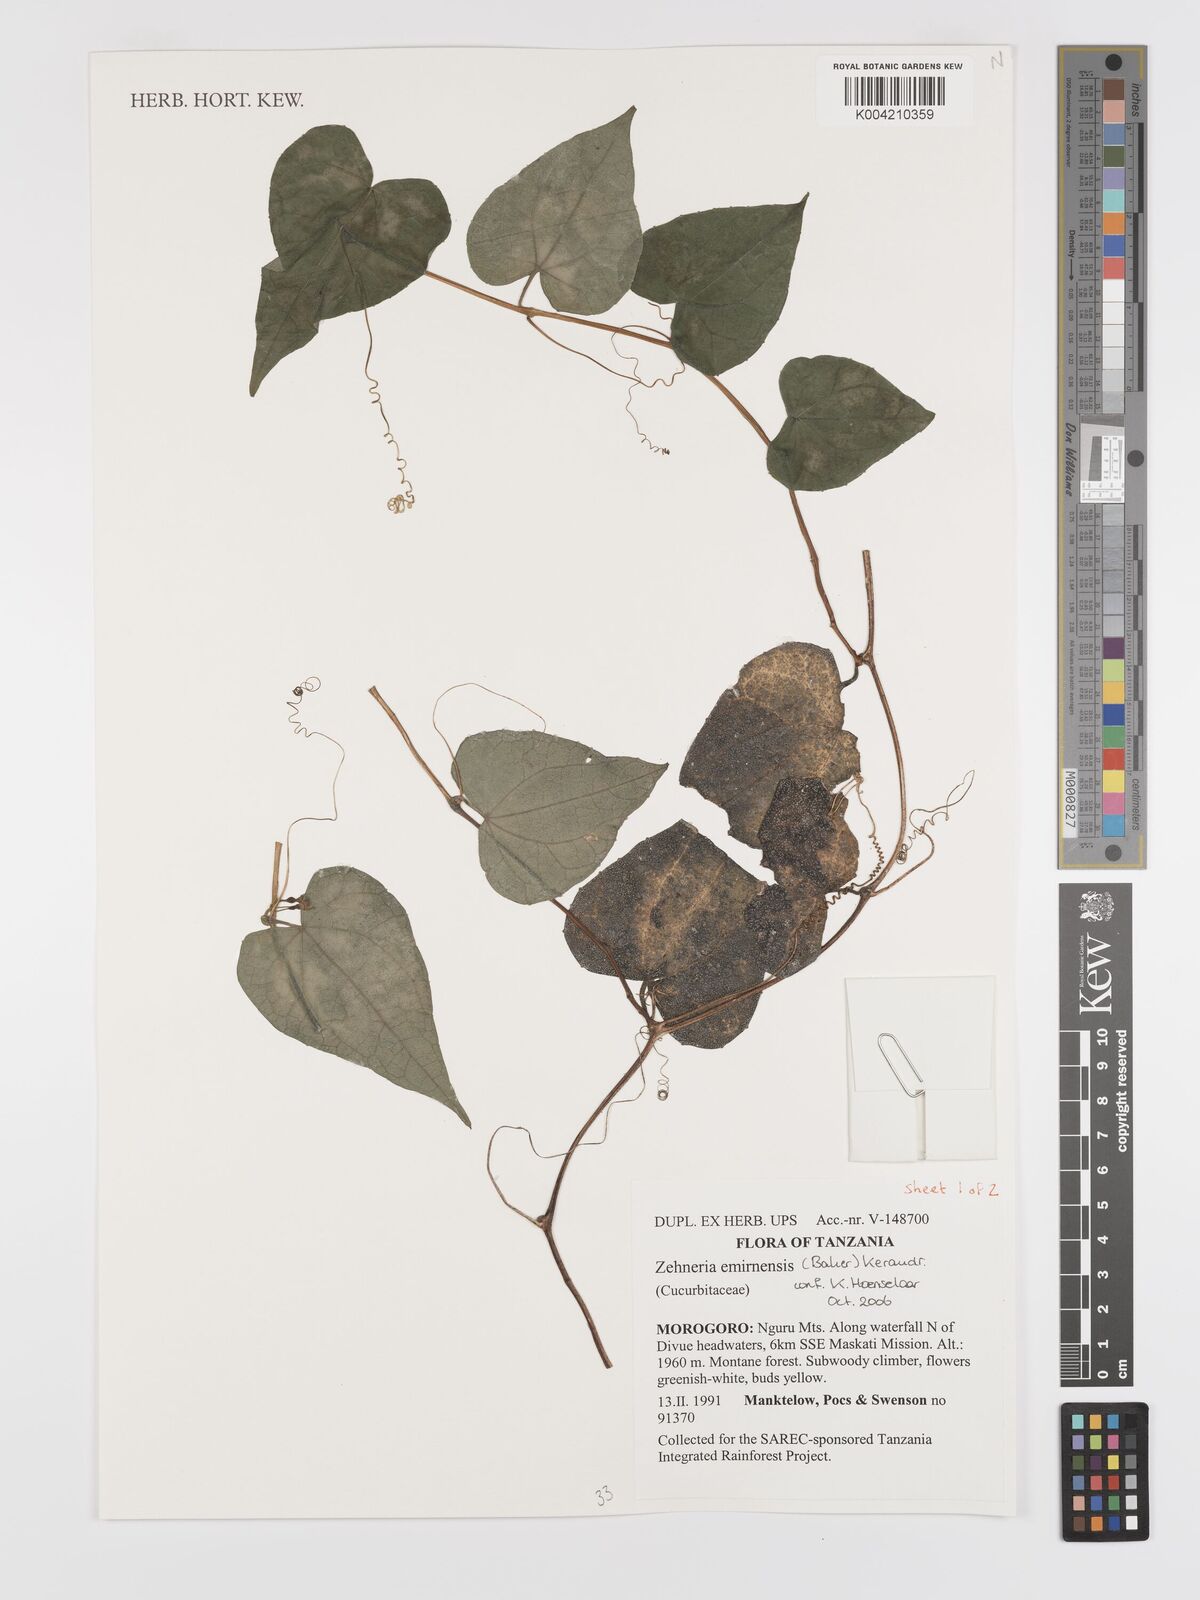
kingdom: Plantae
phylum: Tracheophyta
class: Magnoliopsida
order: Cucurbitales
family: Cucurbitaceae
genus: Zehneria
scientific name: Zehneria emirnensis
